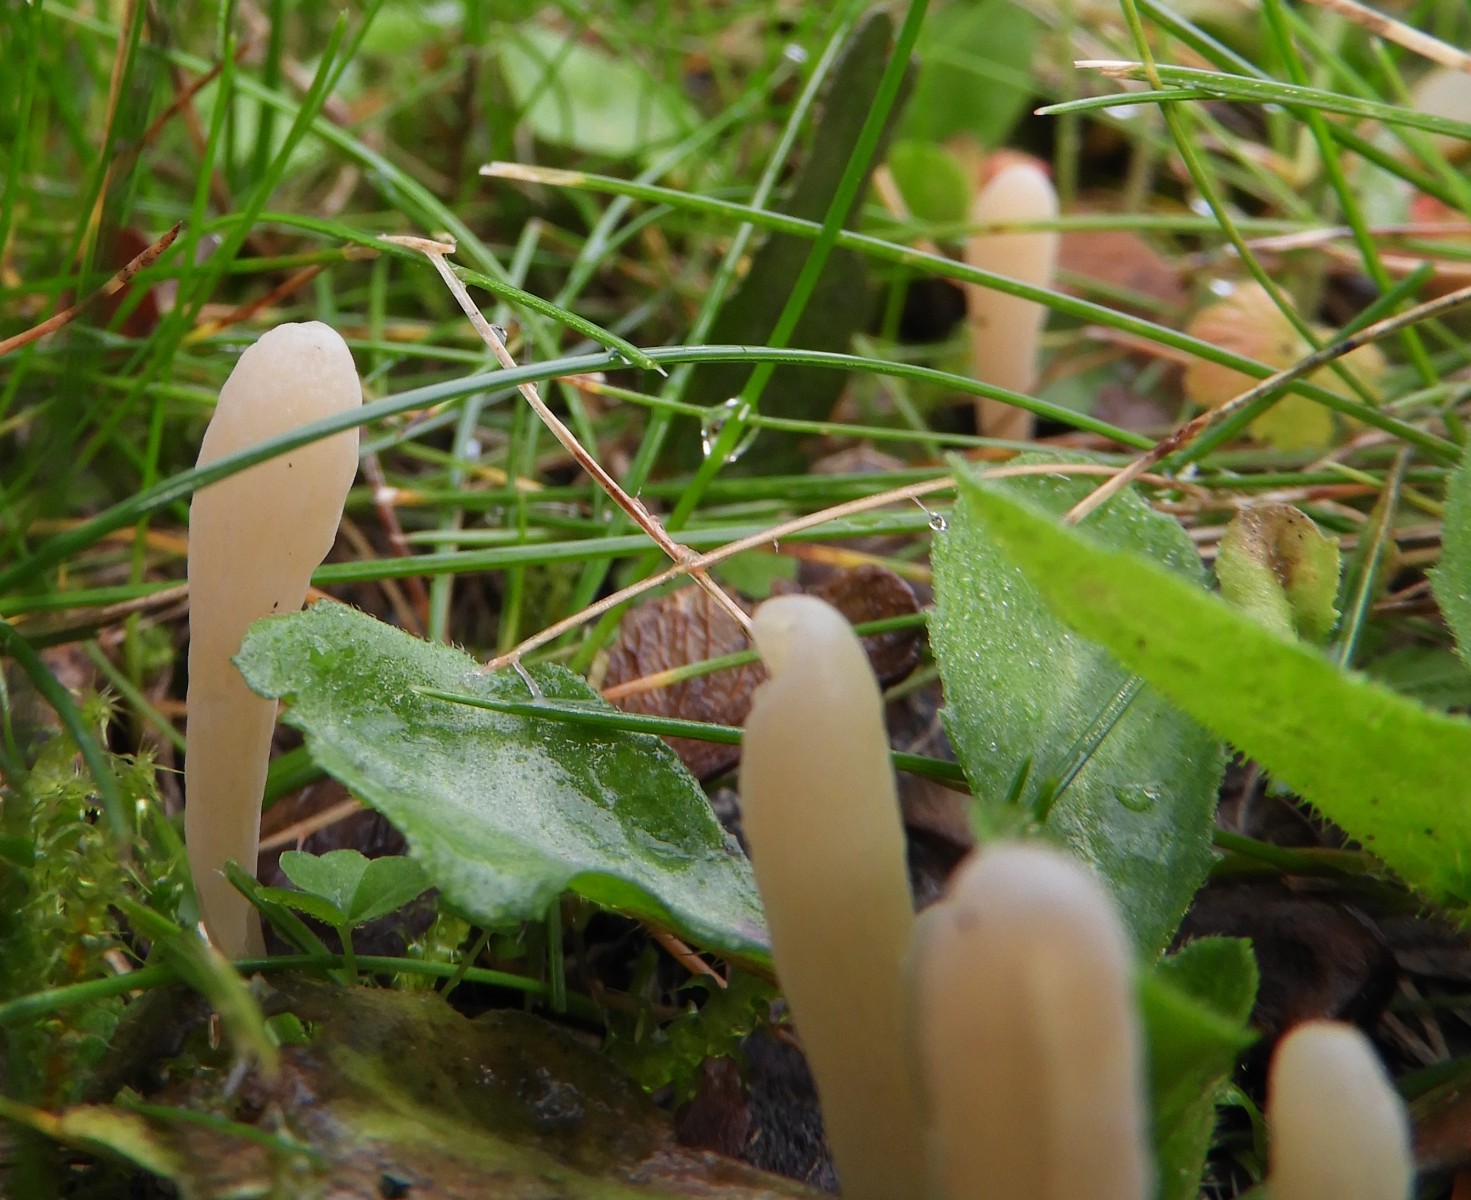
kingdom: Fungi
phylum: Basidiomycota
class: Agaricomycetes
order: Agaricales
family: Clavariaceae
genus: Clavaria
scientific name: Clavaria tenuipes
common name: isabellafarvet køllesvamp
